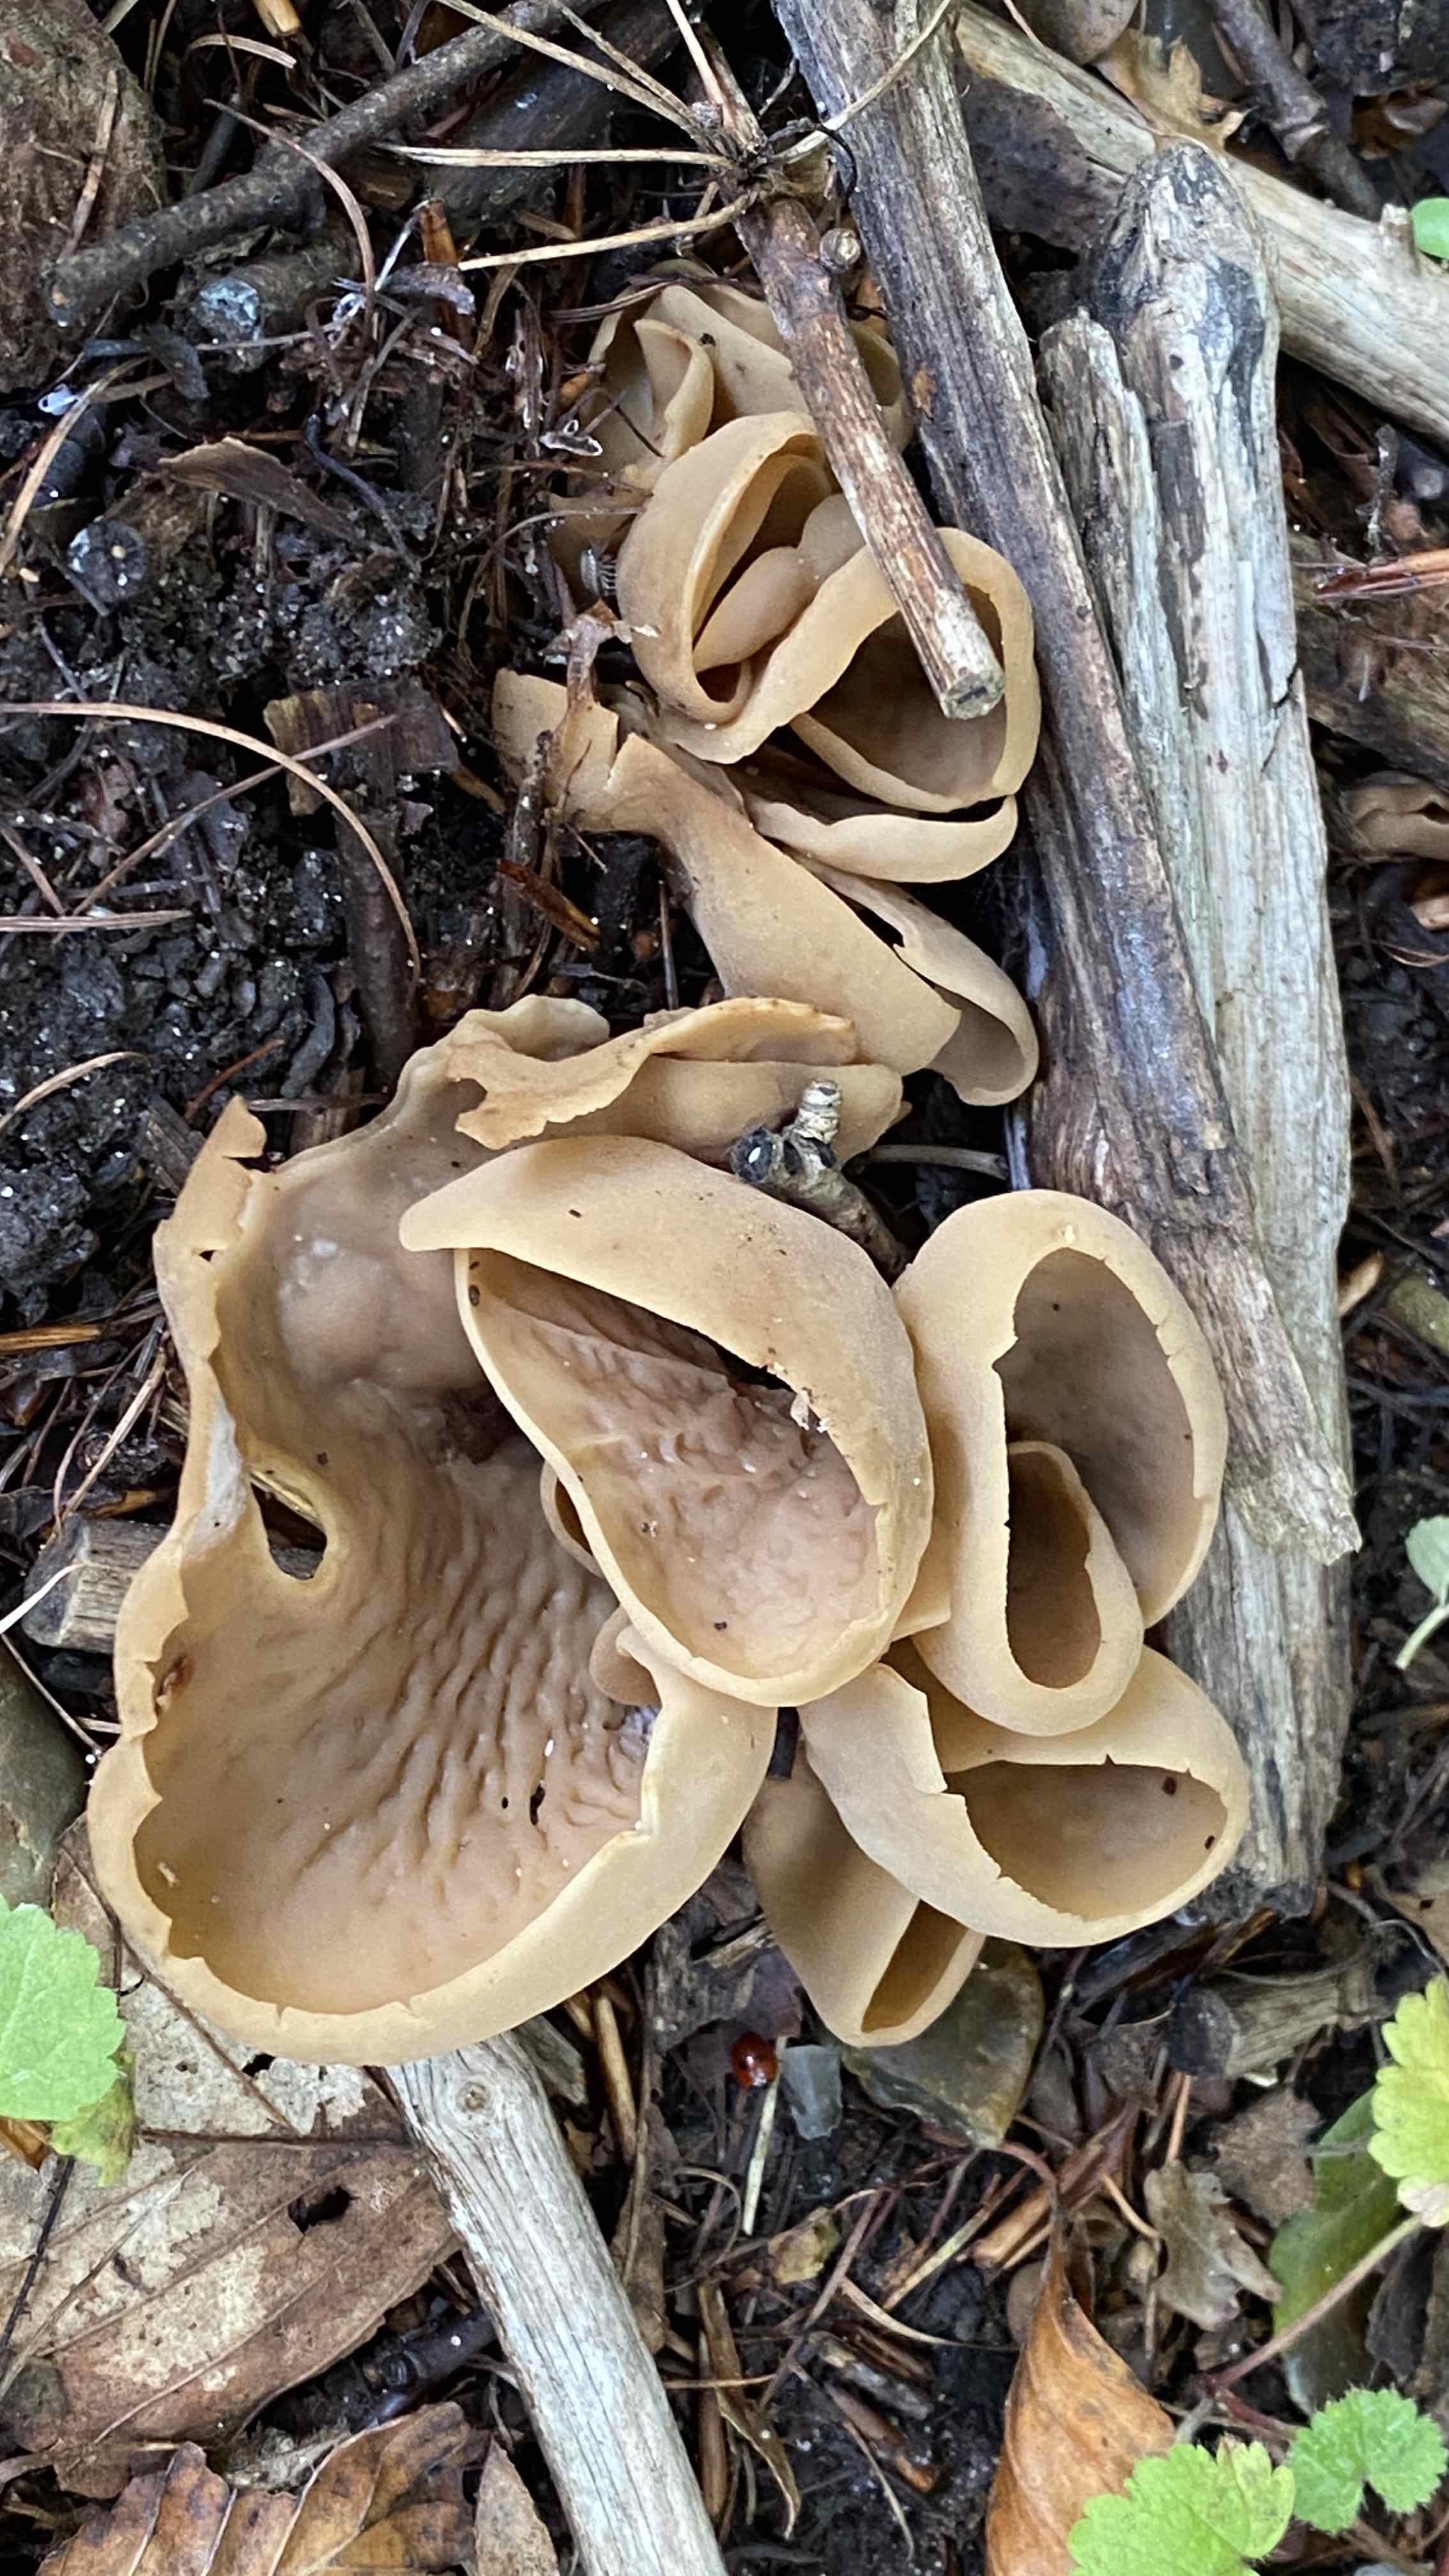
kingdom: Fungi
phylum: Ascomycota
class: Pezizomycetes
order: Pezizales
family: Otideaceae
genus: Otidea
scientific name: Otidea
